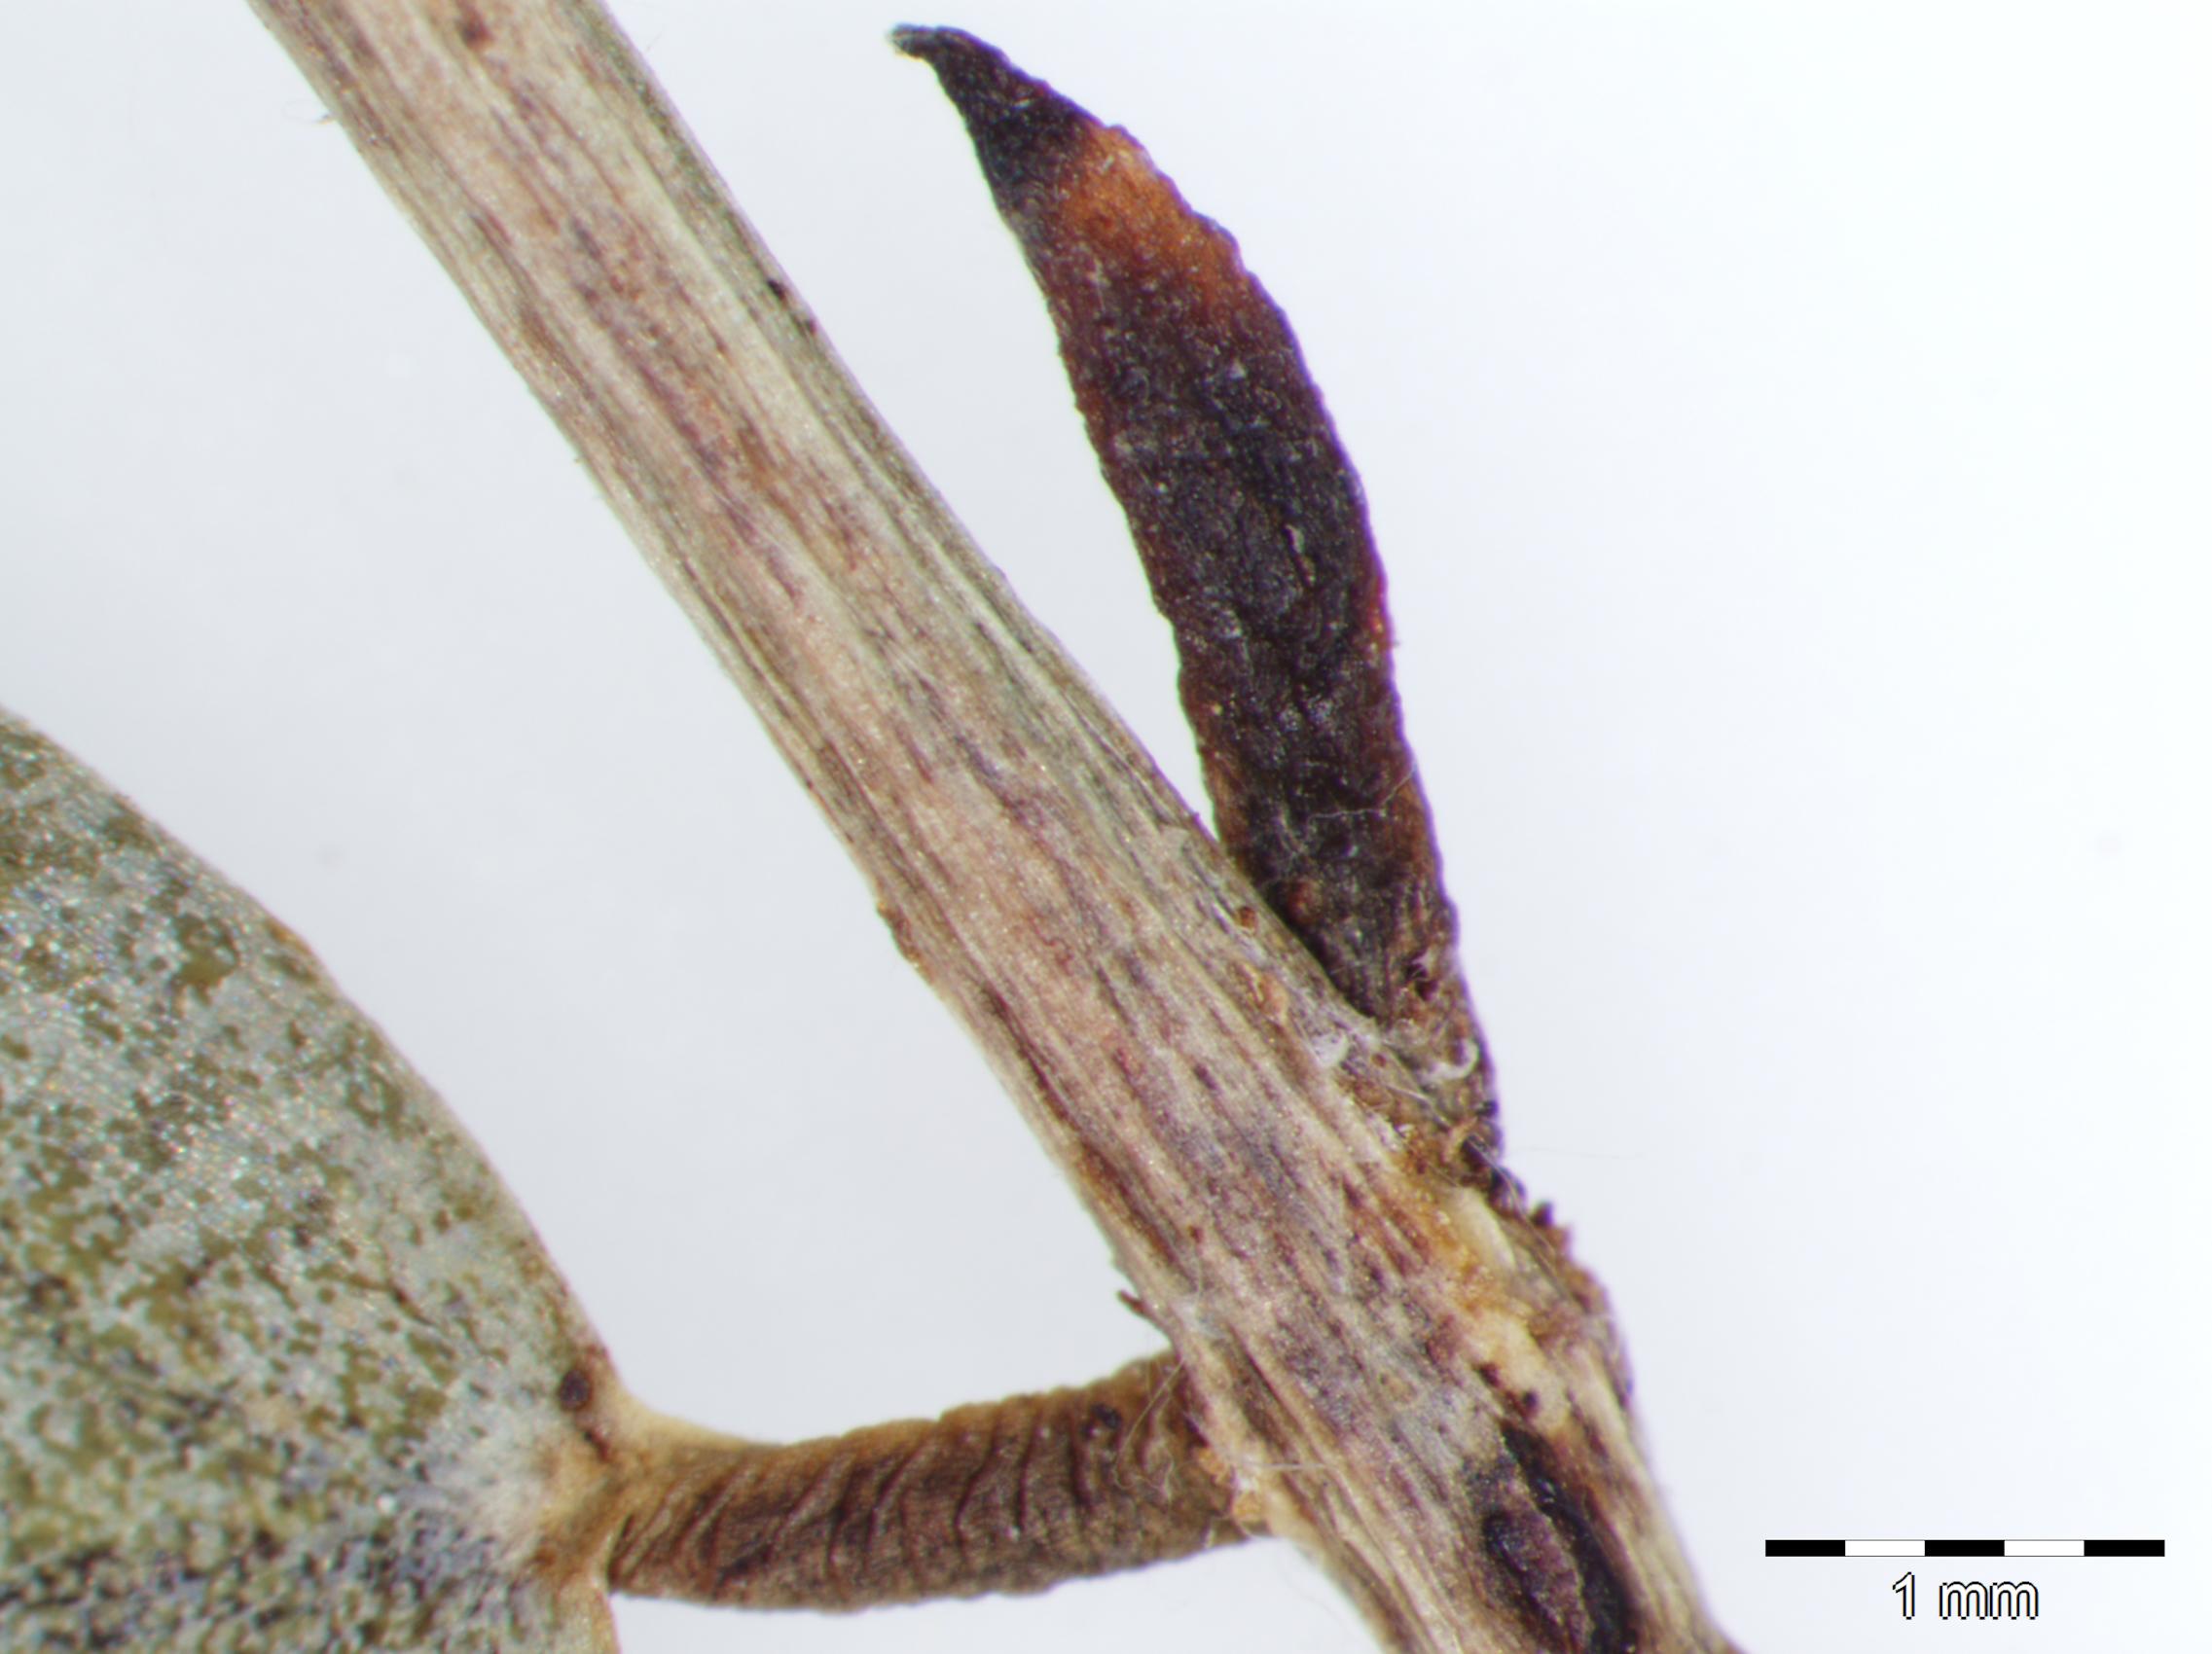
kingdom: Plantae
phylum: Tracheophyta
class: Magnoliopsida
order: Fabales
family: Fabaceae
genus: Senna
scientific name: Senna pallida
